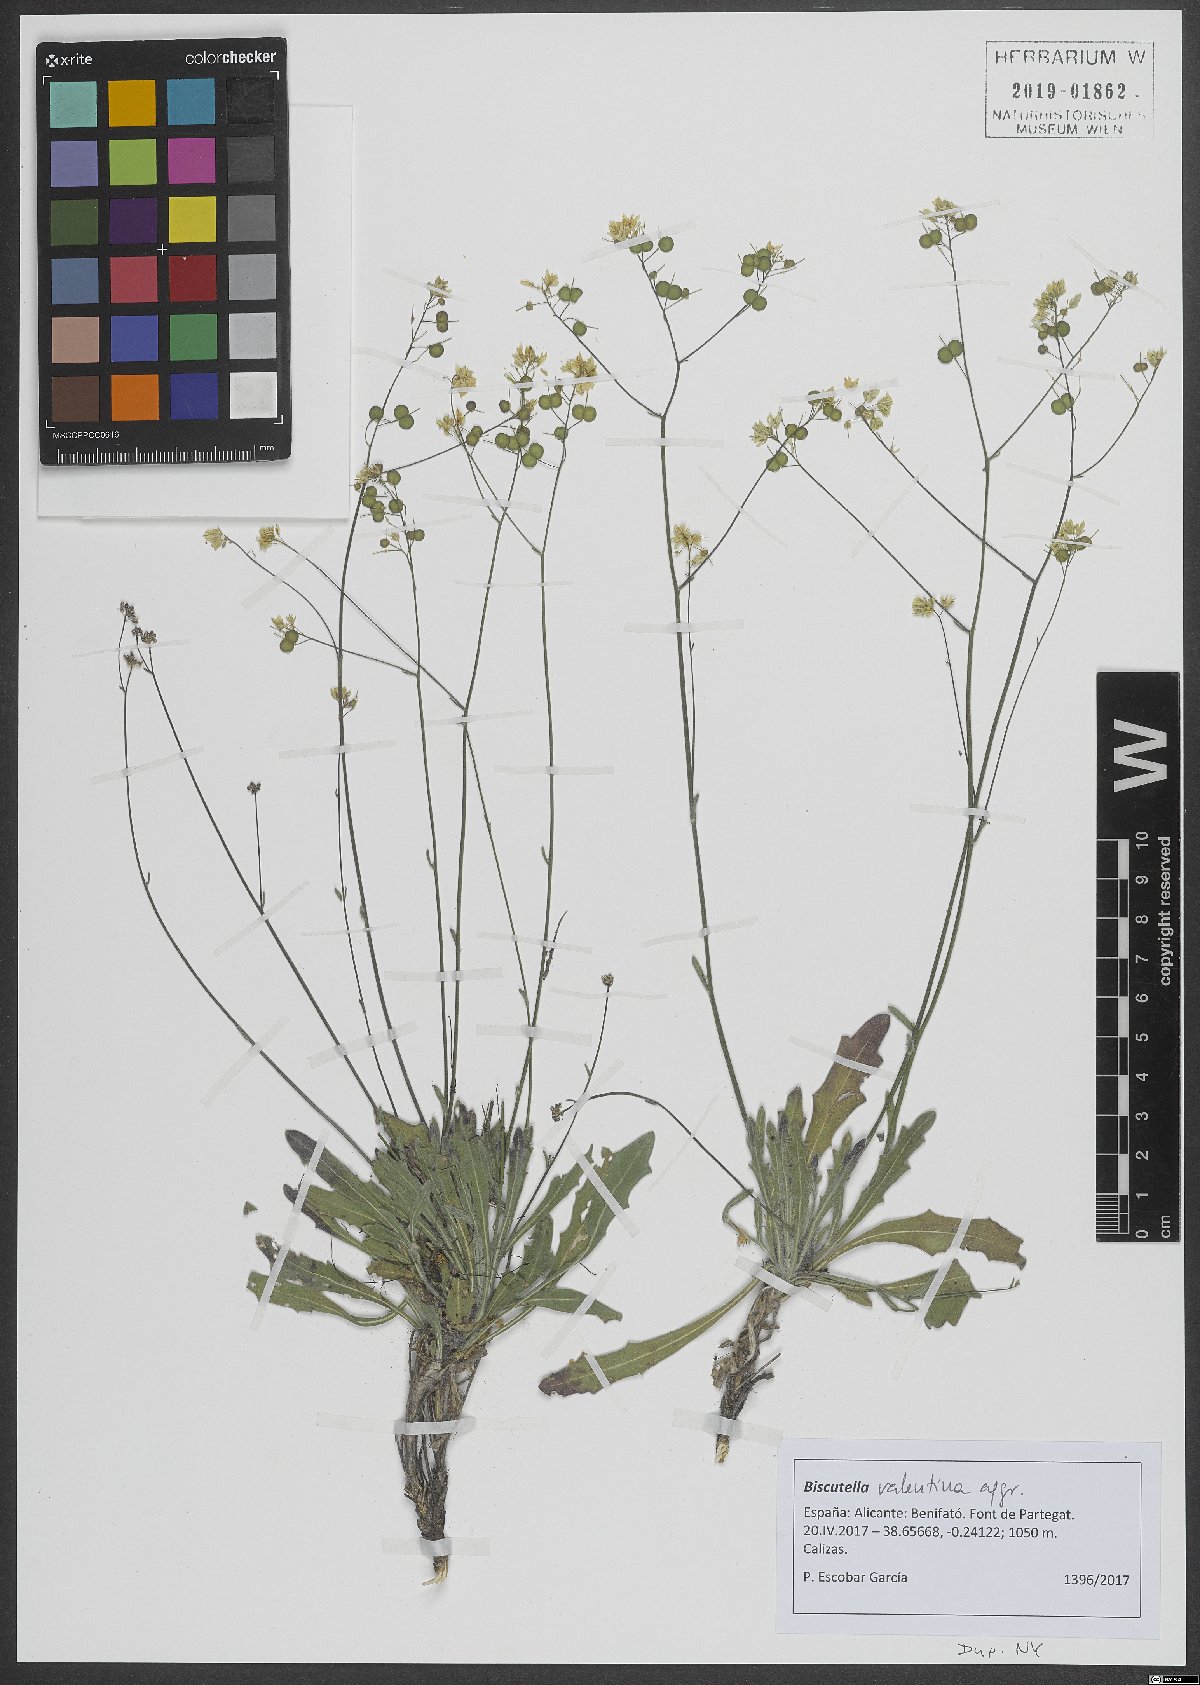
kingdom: Plantae
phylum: Tracheophyta
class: Magnoliopsida
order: Brassicales
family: Brassicaceae
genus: Biscutella
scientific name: Biscutella valentina
